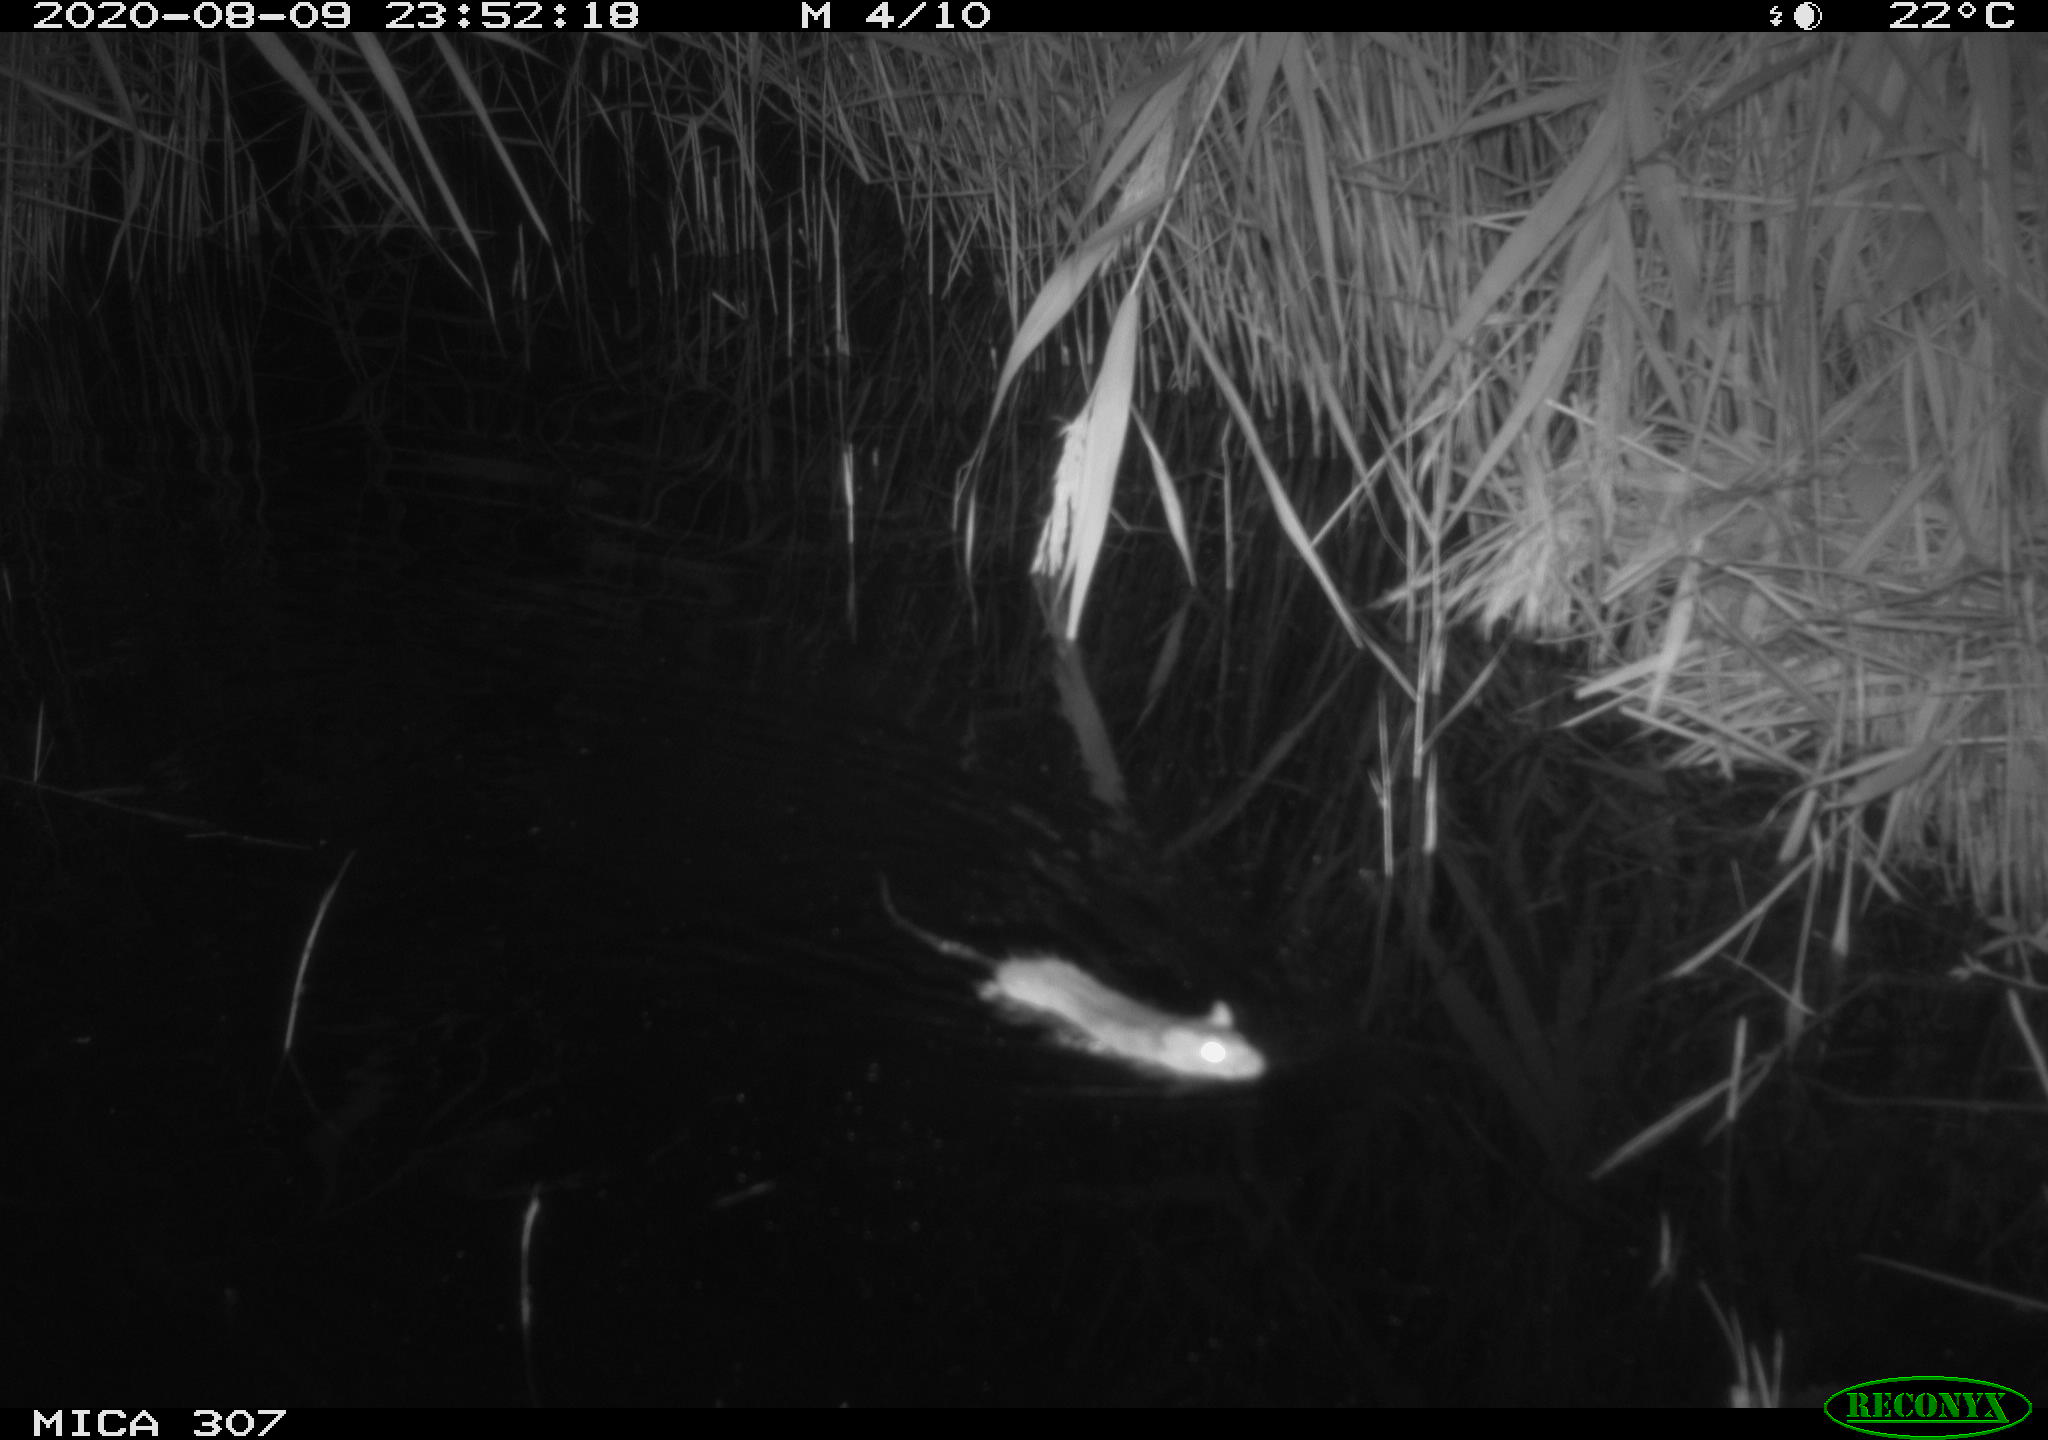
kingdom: Animalia
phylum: Chordata
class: Mammalia
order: Rodentia
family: Muridae
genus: Rattus
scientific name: Rattus norvegicus
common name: Brown rat
